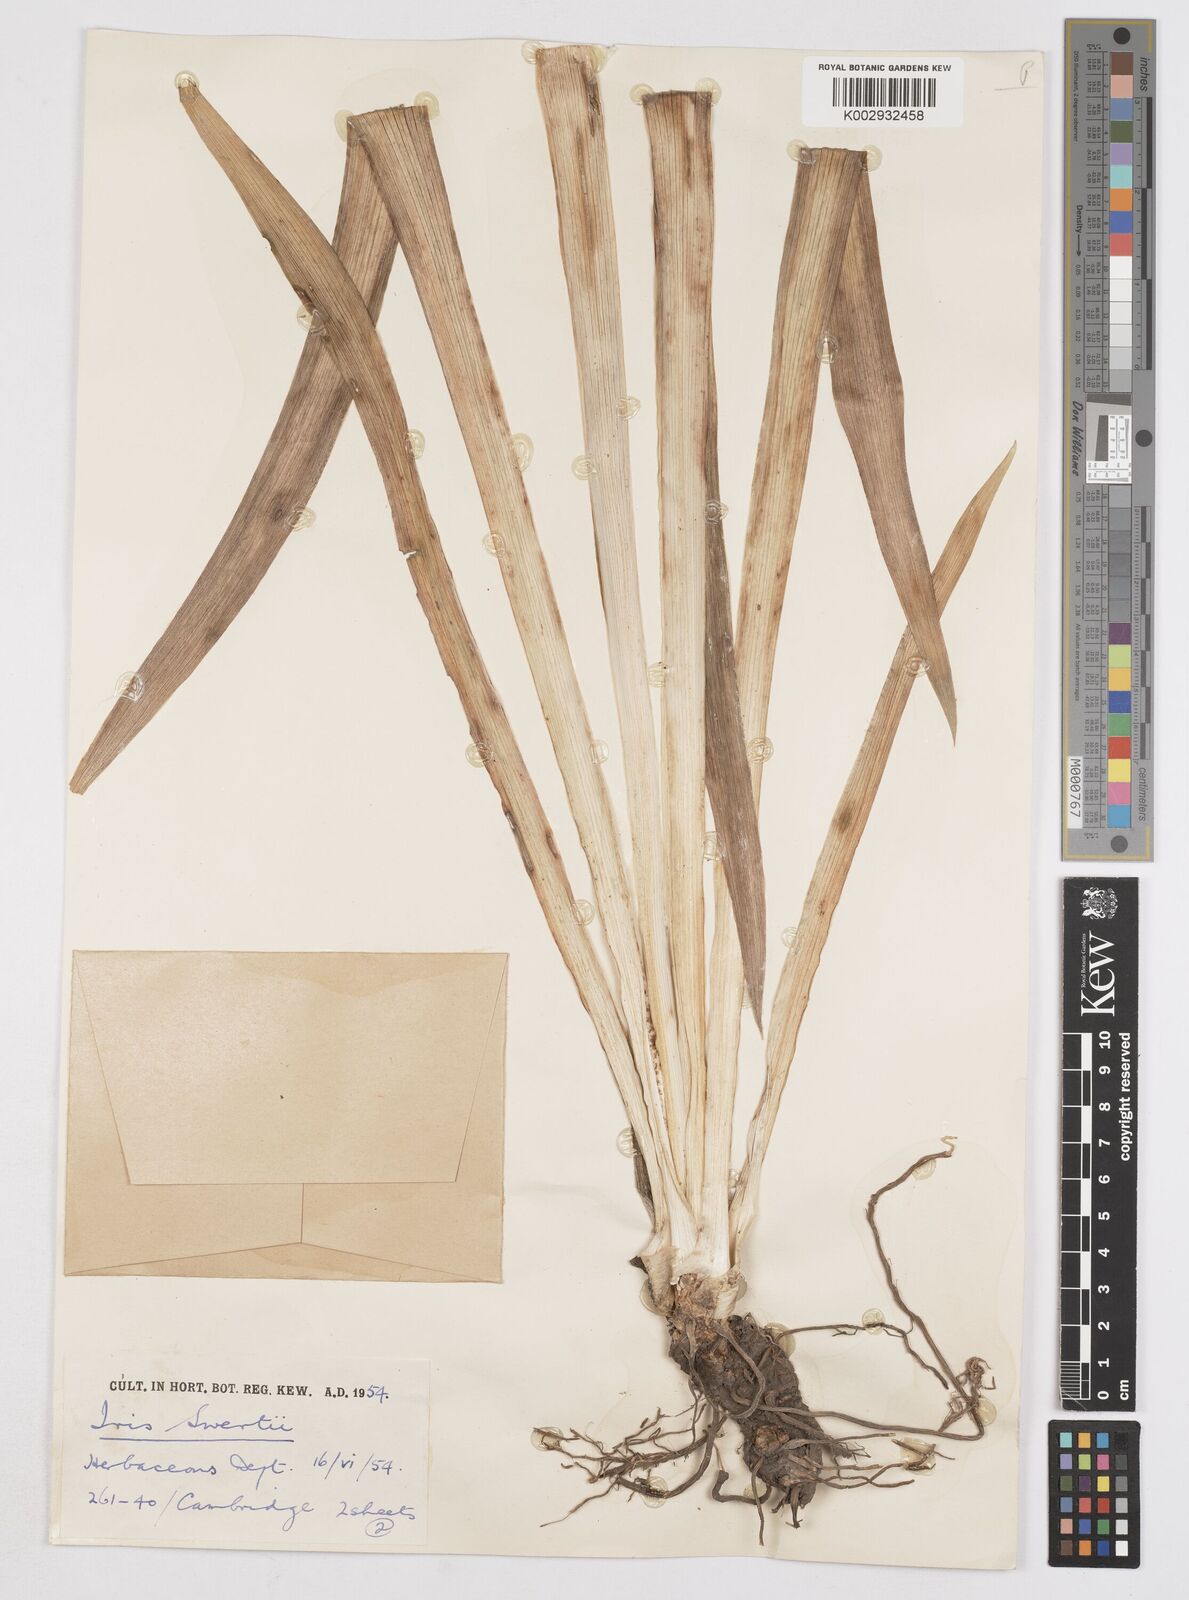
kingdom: Plantae
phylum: Tracheophyta
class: Liliopsida
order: Asparagales
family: Iridaceae
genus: Iris
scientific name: Iris pallida
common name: Sweet iris
